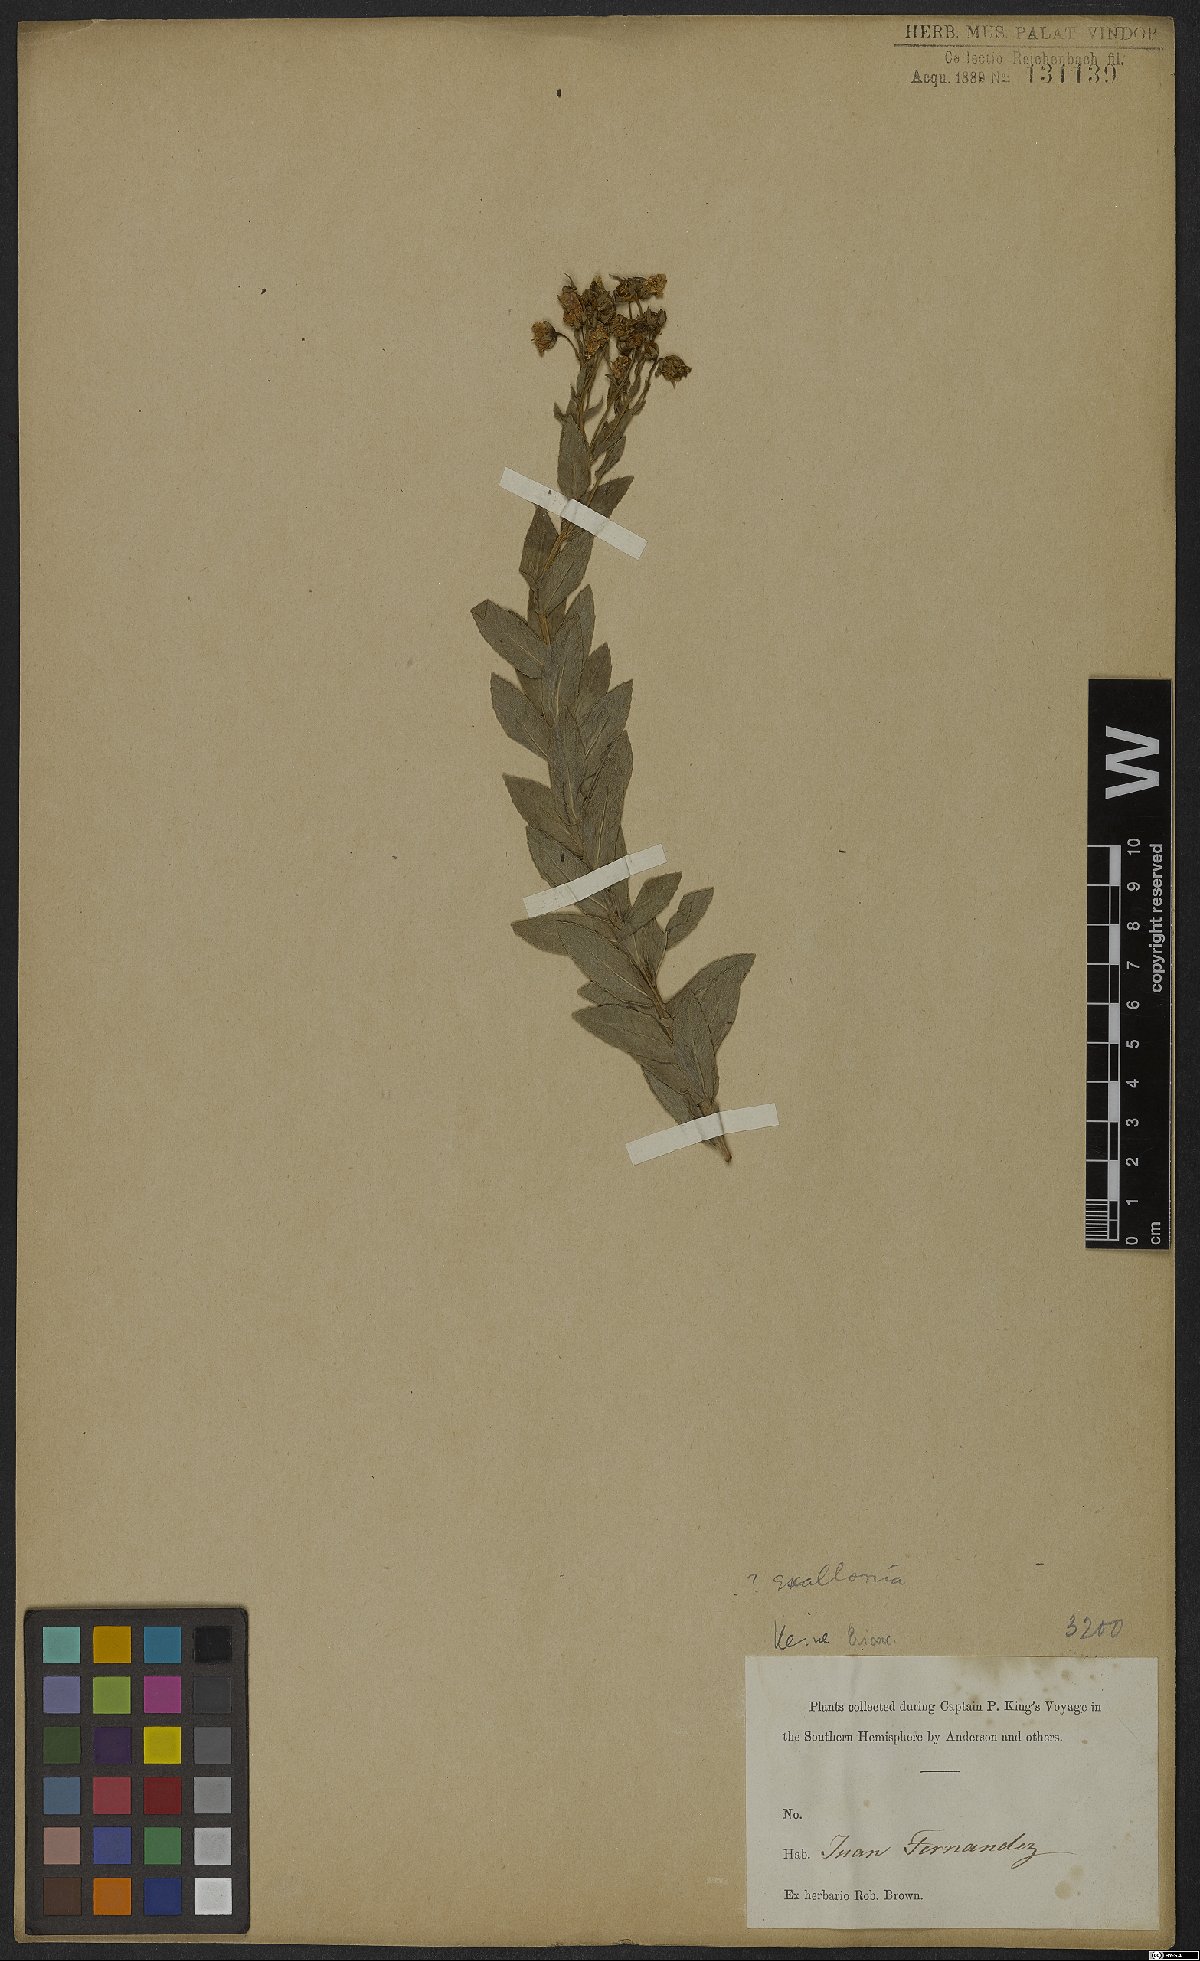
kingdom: Plantae
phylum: Tracheophyta
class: Magnoliopsida
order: Escalloniales
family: Escalloniaceae
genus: Escallonia
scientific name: Escallonia
